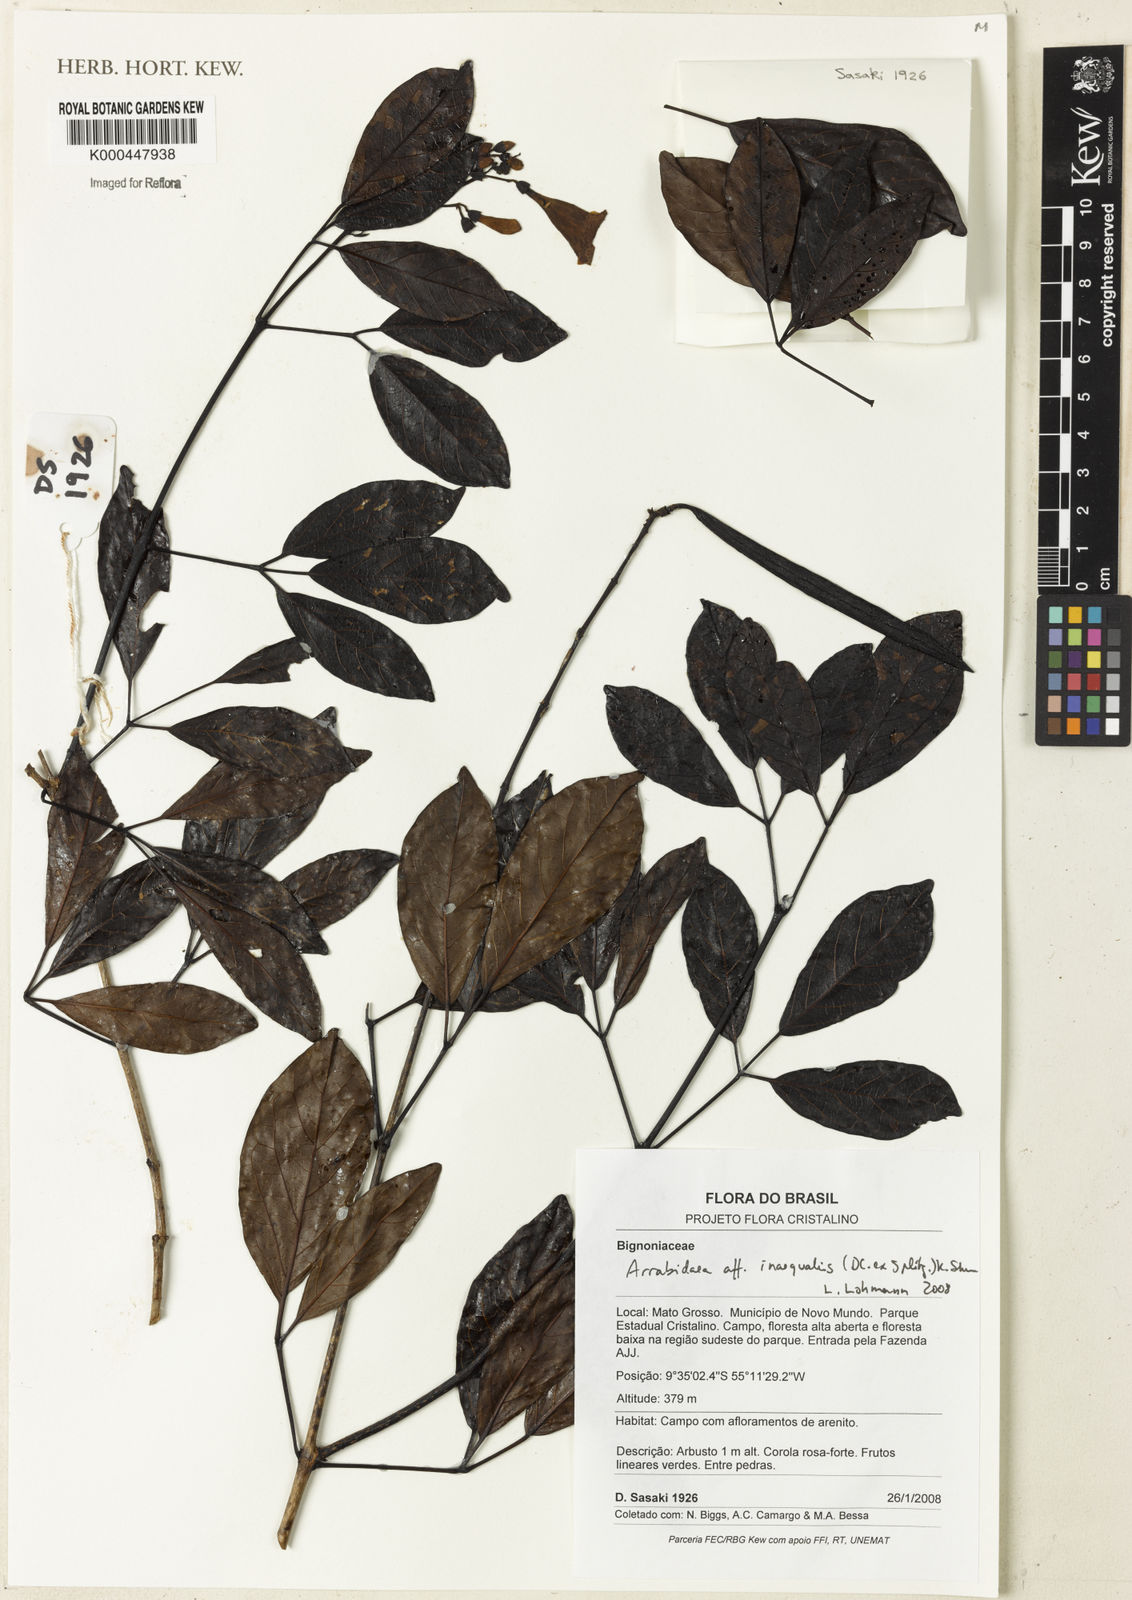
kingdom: Plantae
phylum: Tracheophyta
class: Magnoliopsida
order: Rosales
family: Rhamnaceae
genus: Arrabidaea
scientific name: Arrabidaea
